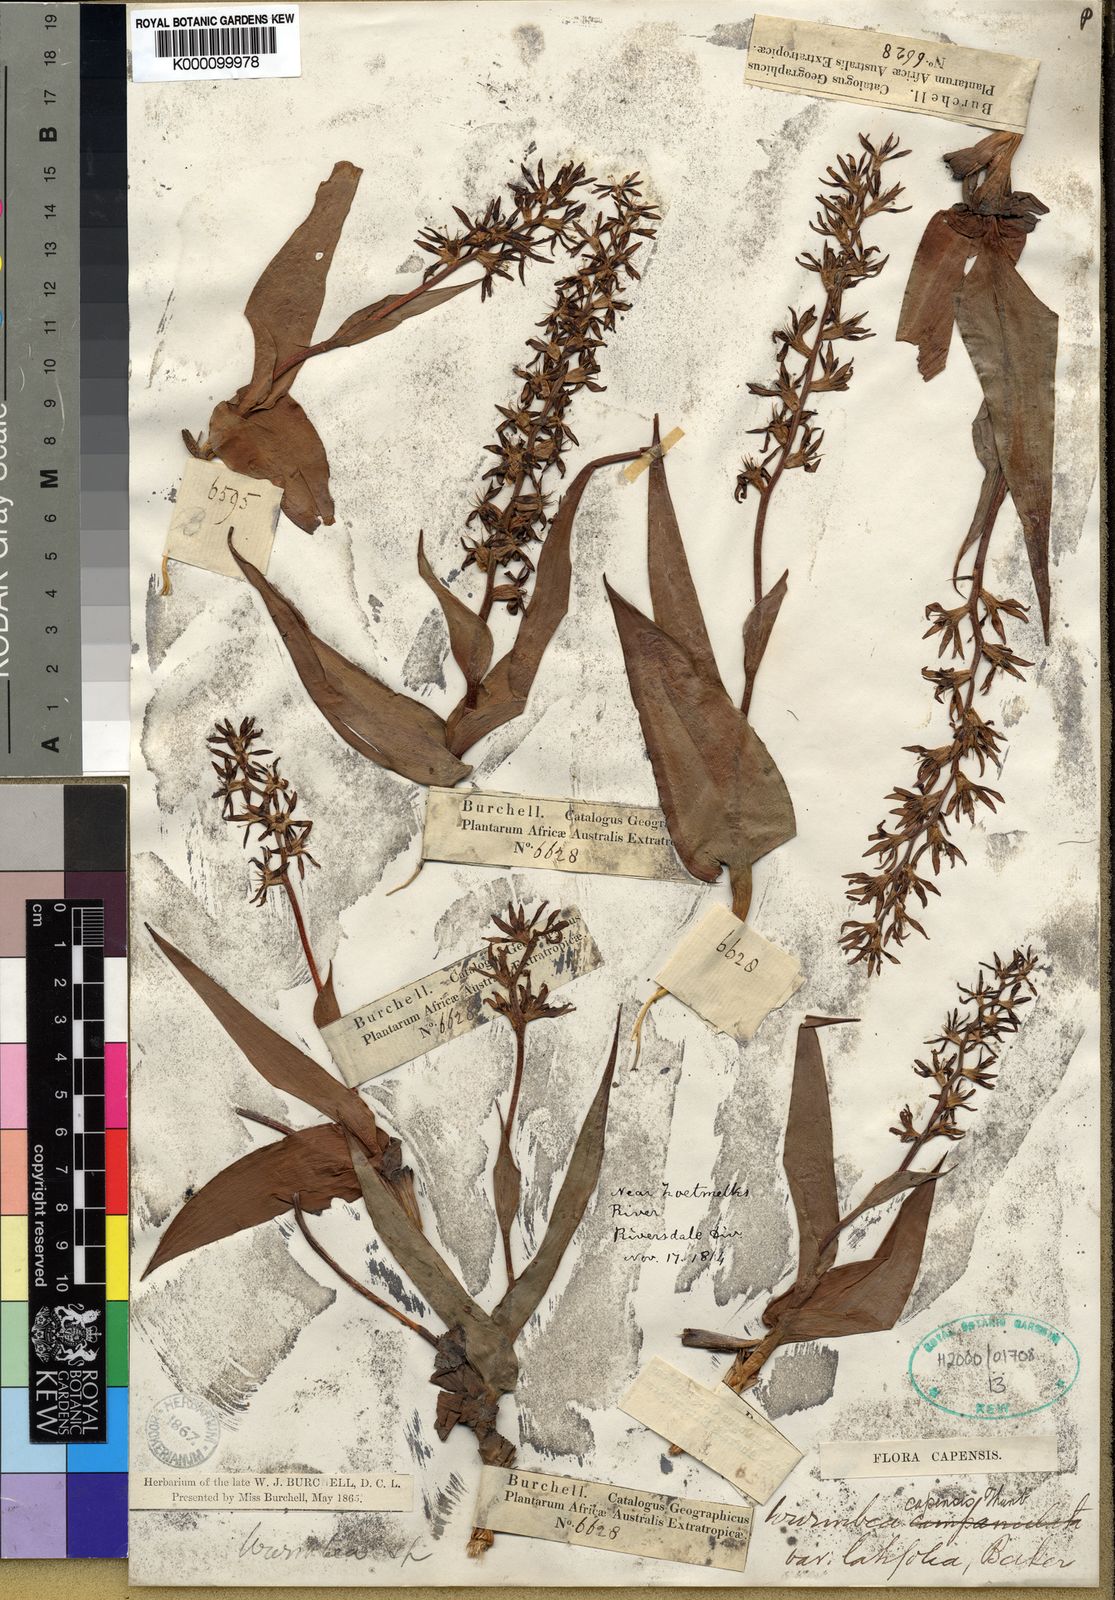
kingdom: Plantae
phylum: Tracheophyta
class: Liliopsida
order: Liliales
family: Colchicaceae
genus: Wurmbea
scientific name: Wurmbea capensis
